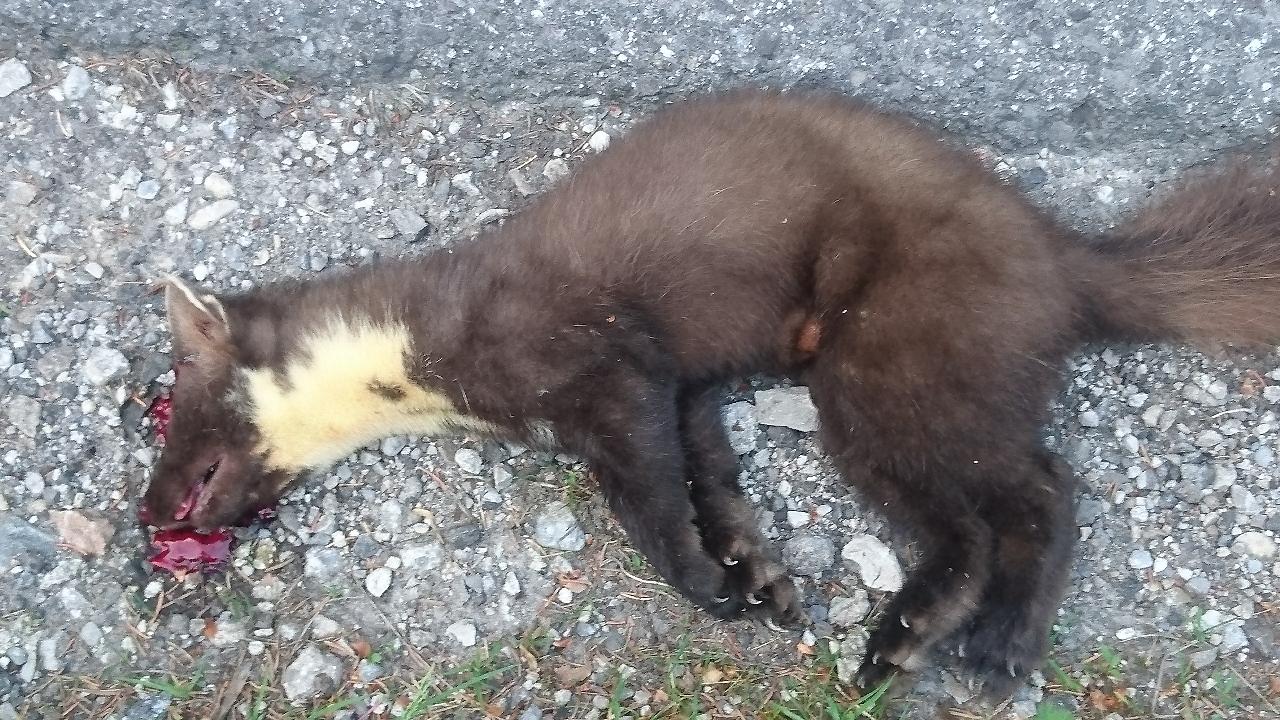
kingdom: Animalia
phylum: Chordata
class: Mammalia
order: Carnivora
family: Mustelidae
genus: Martes
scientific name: Martes martes
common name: European pine marten
